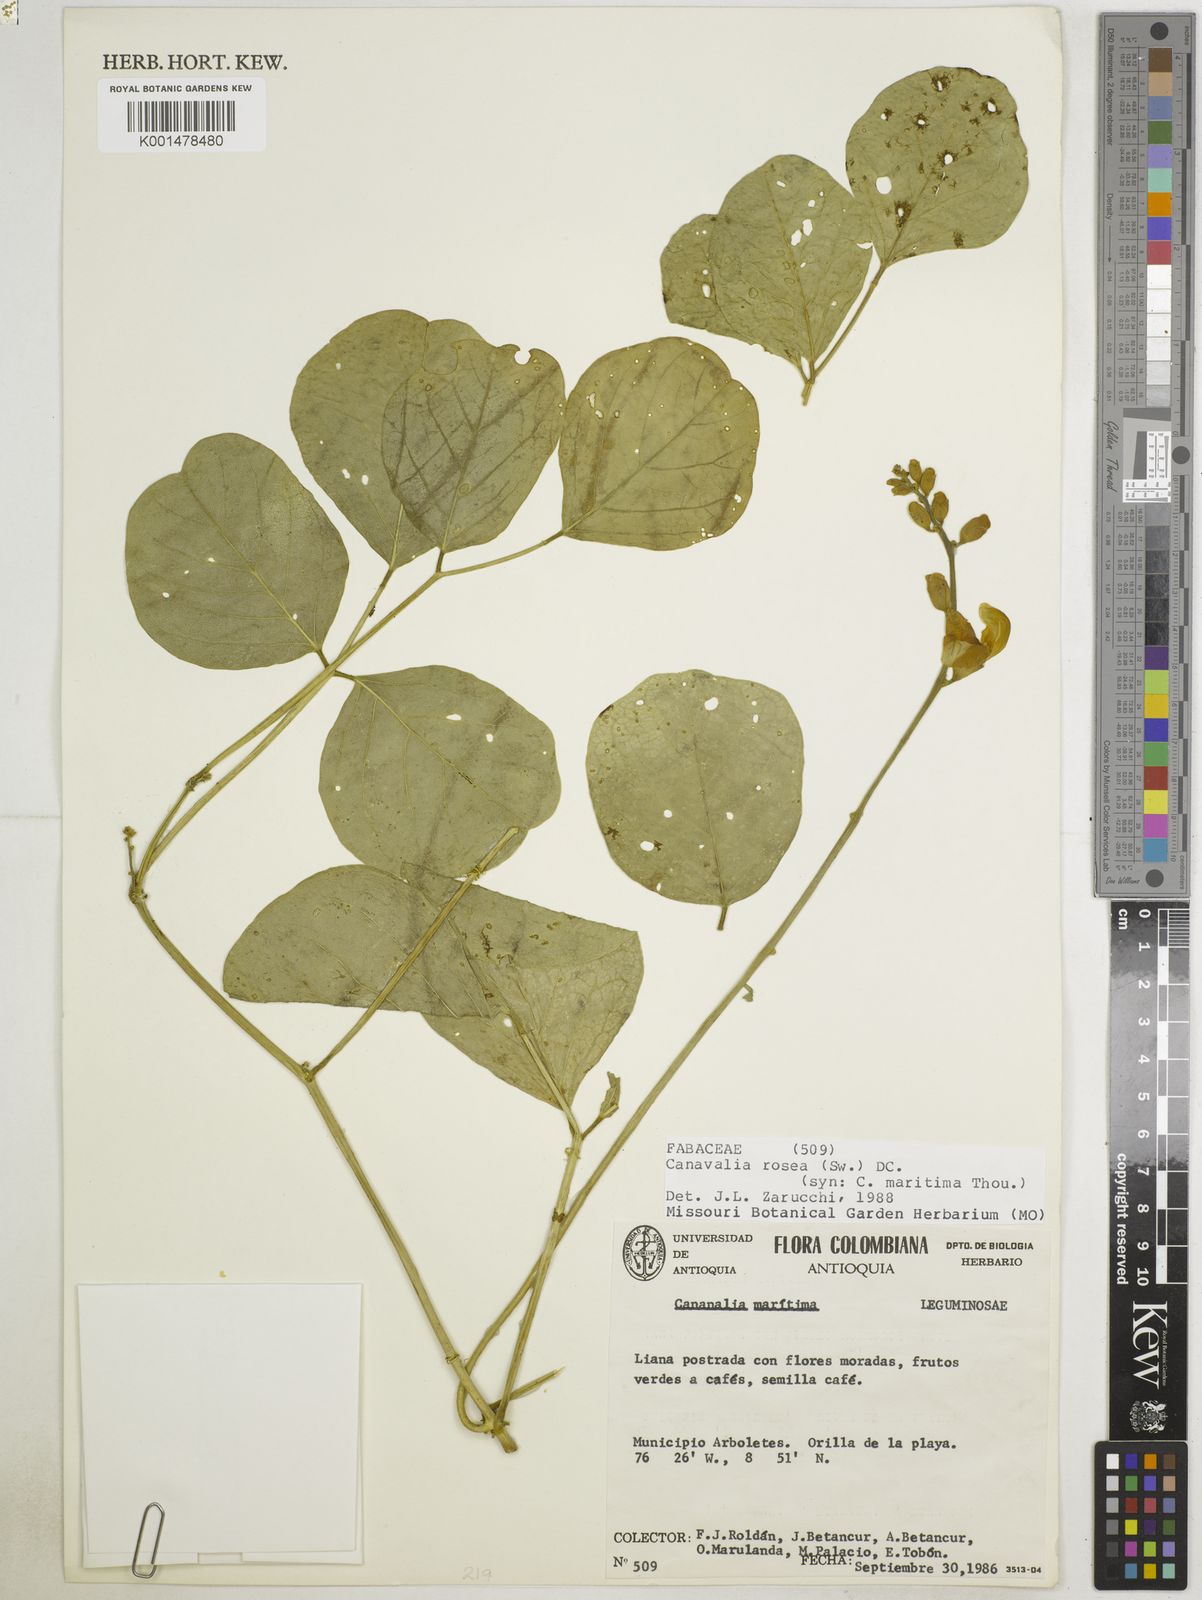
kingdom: Plantae
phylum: Tracheophyta
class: Magnoliopsida
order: Fabales
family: Fabaceae
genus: Canavalia
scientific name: Canavalia rosea
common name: Beach-bean
